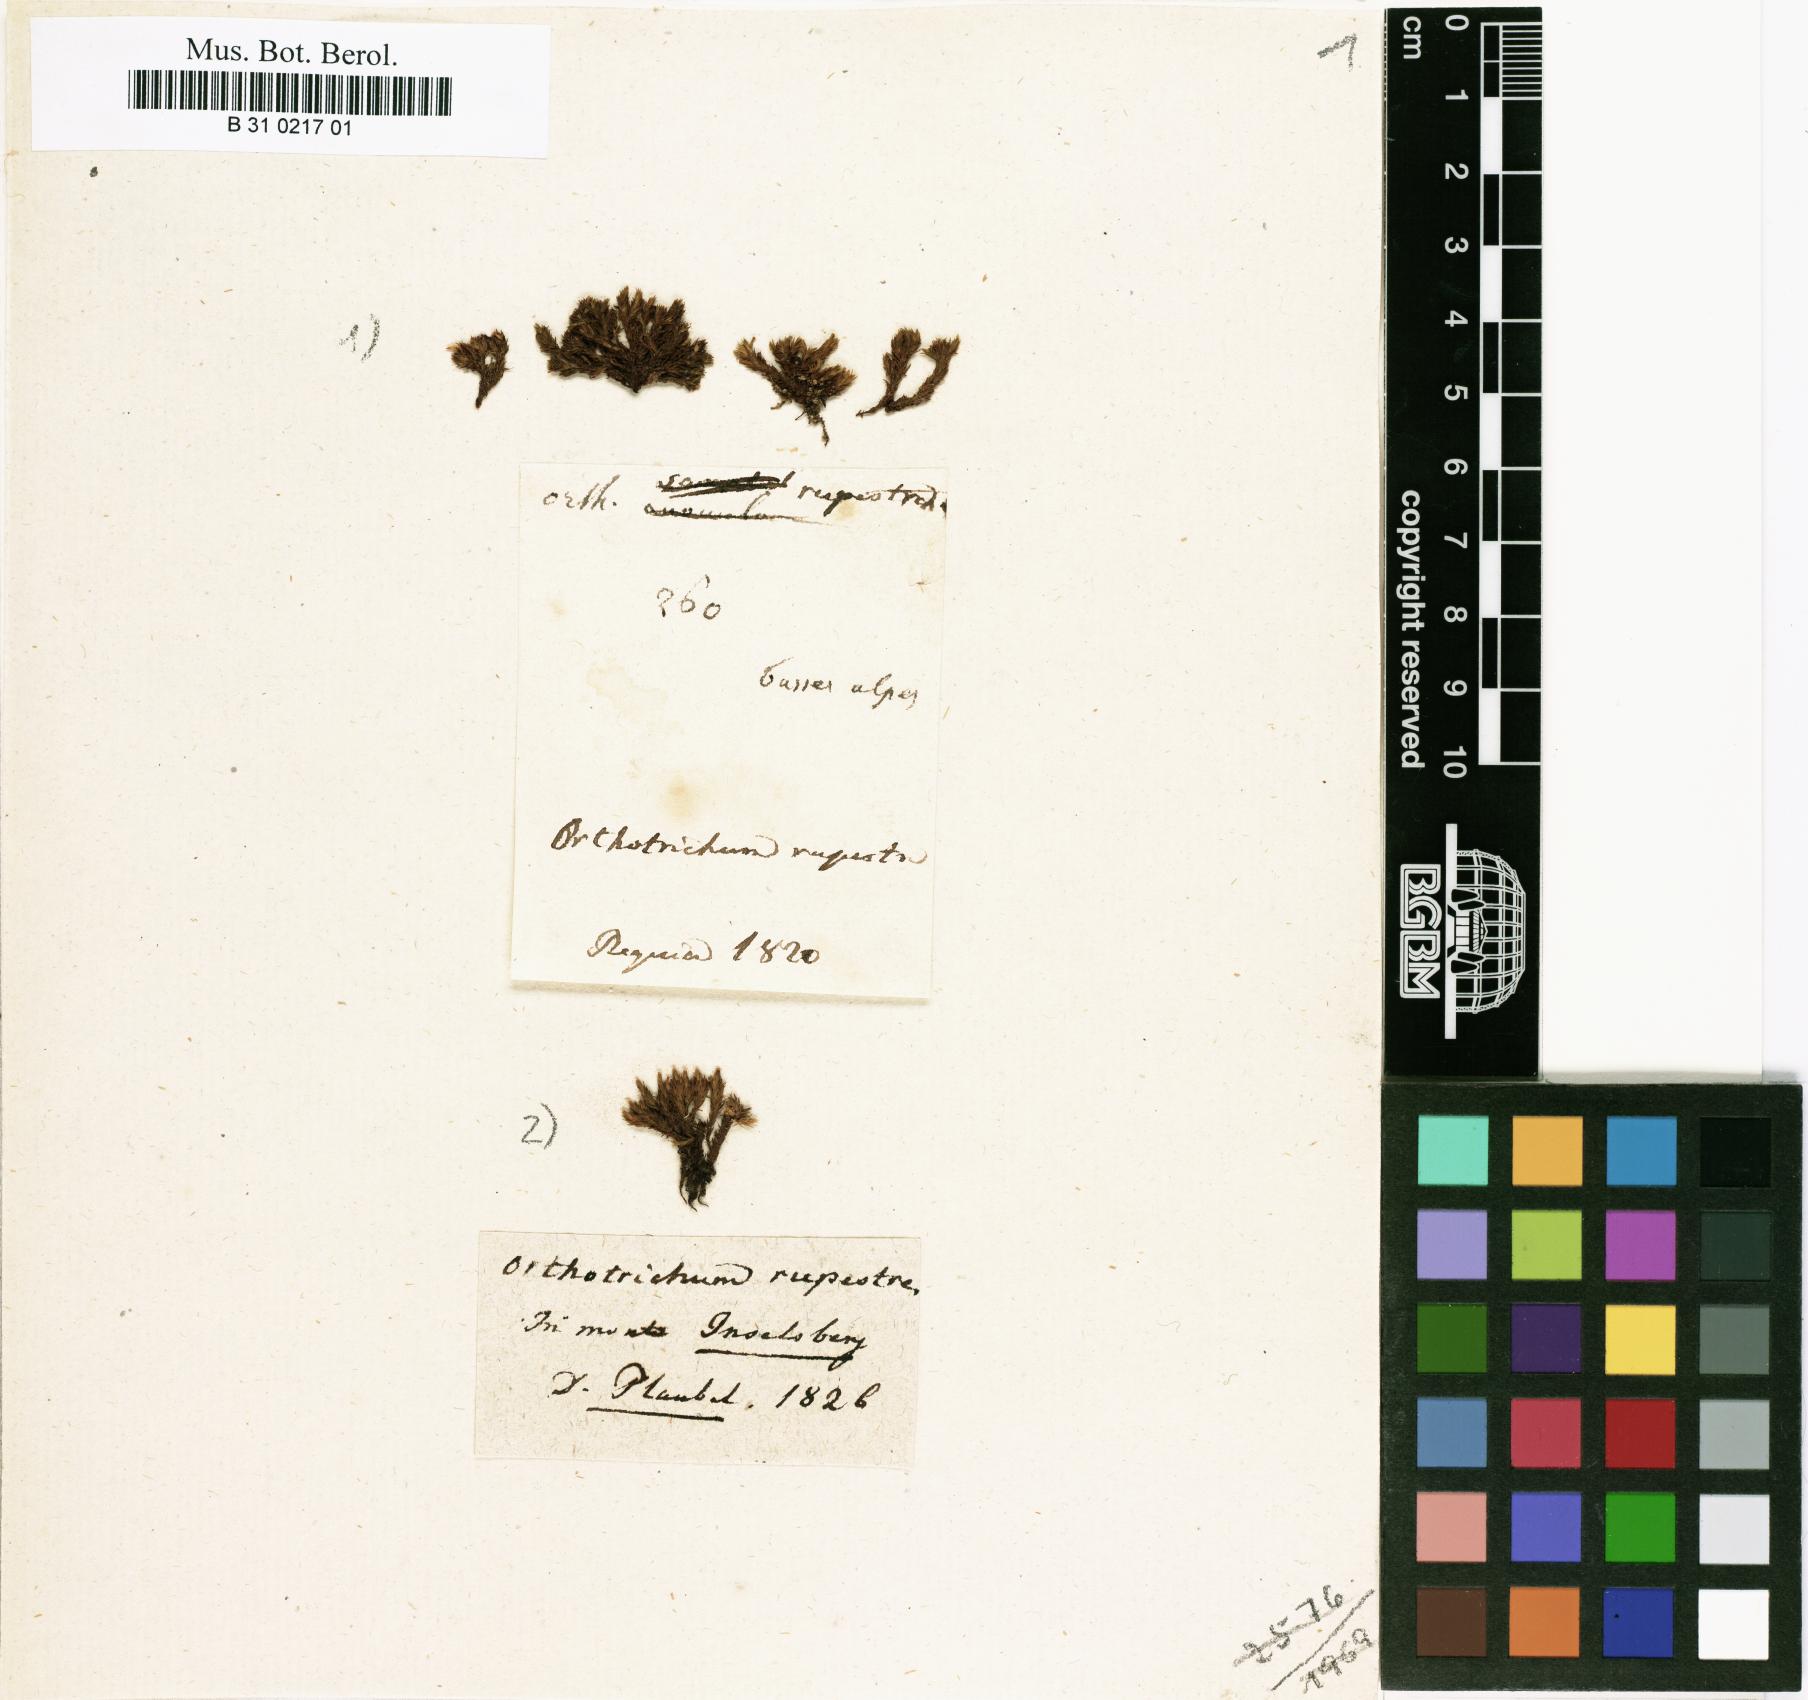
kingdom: Plantae
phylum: Bryophyta
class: Bryopsida
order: Orthotrichales
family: Orthotrichaceae
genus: Lewinskya
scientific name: Lewinskya rupestris
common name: Rock bristle-moss
